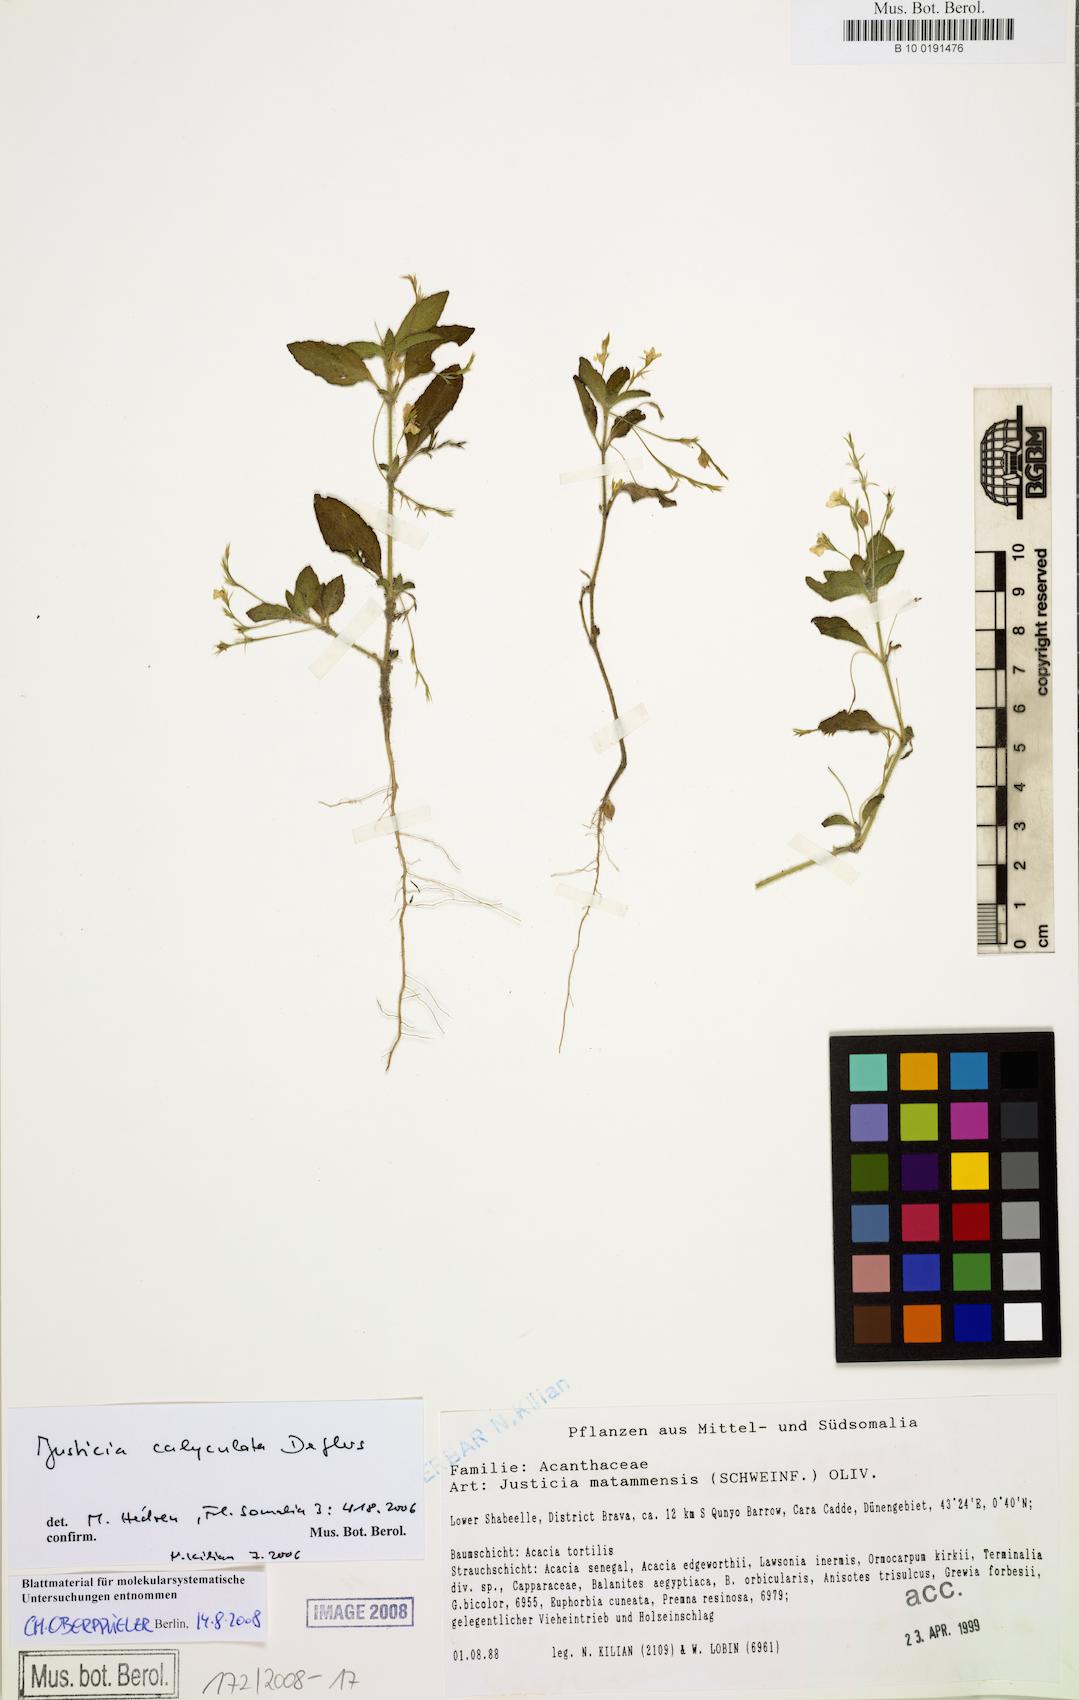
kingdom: Plantae
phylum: Tracheophyta
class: Magnoliopsida
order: Lamiales
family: Acanthaceae
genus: Justicia
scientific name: Justicia calyculata
